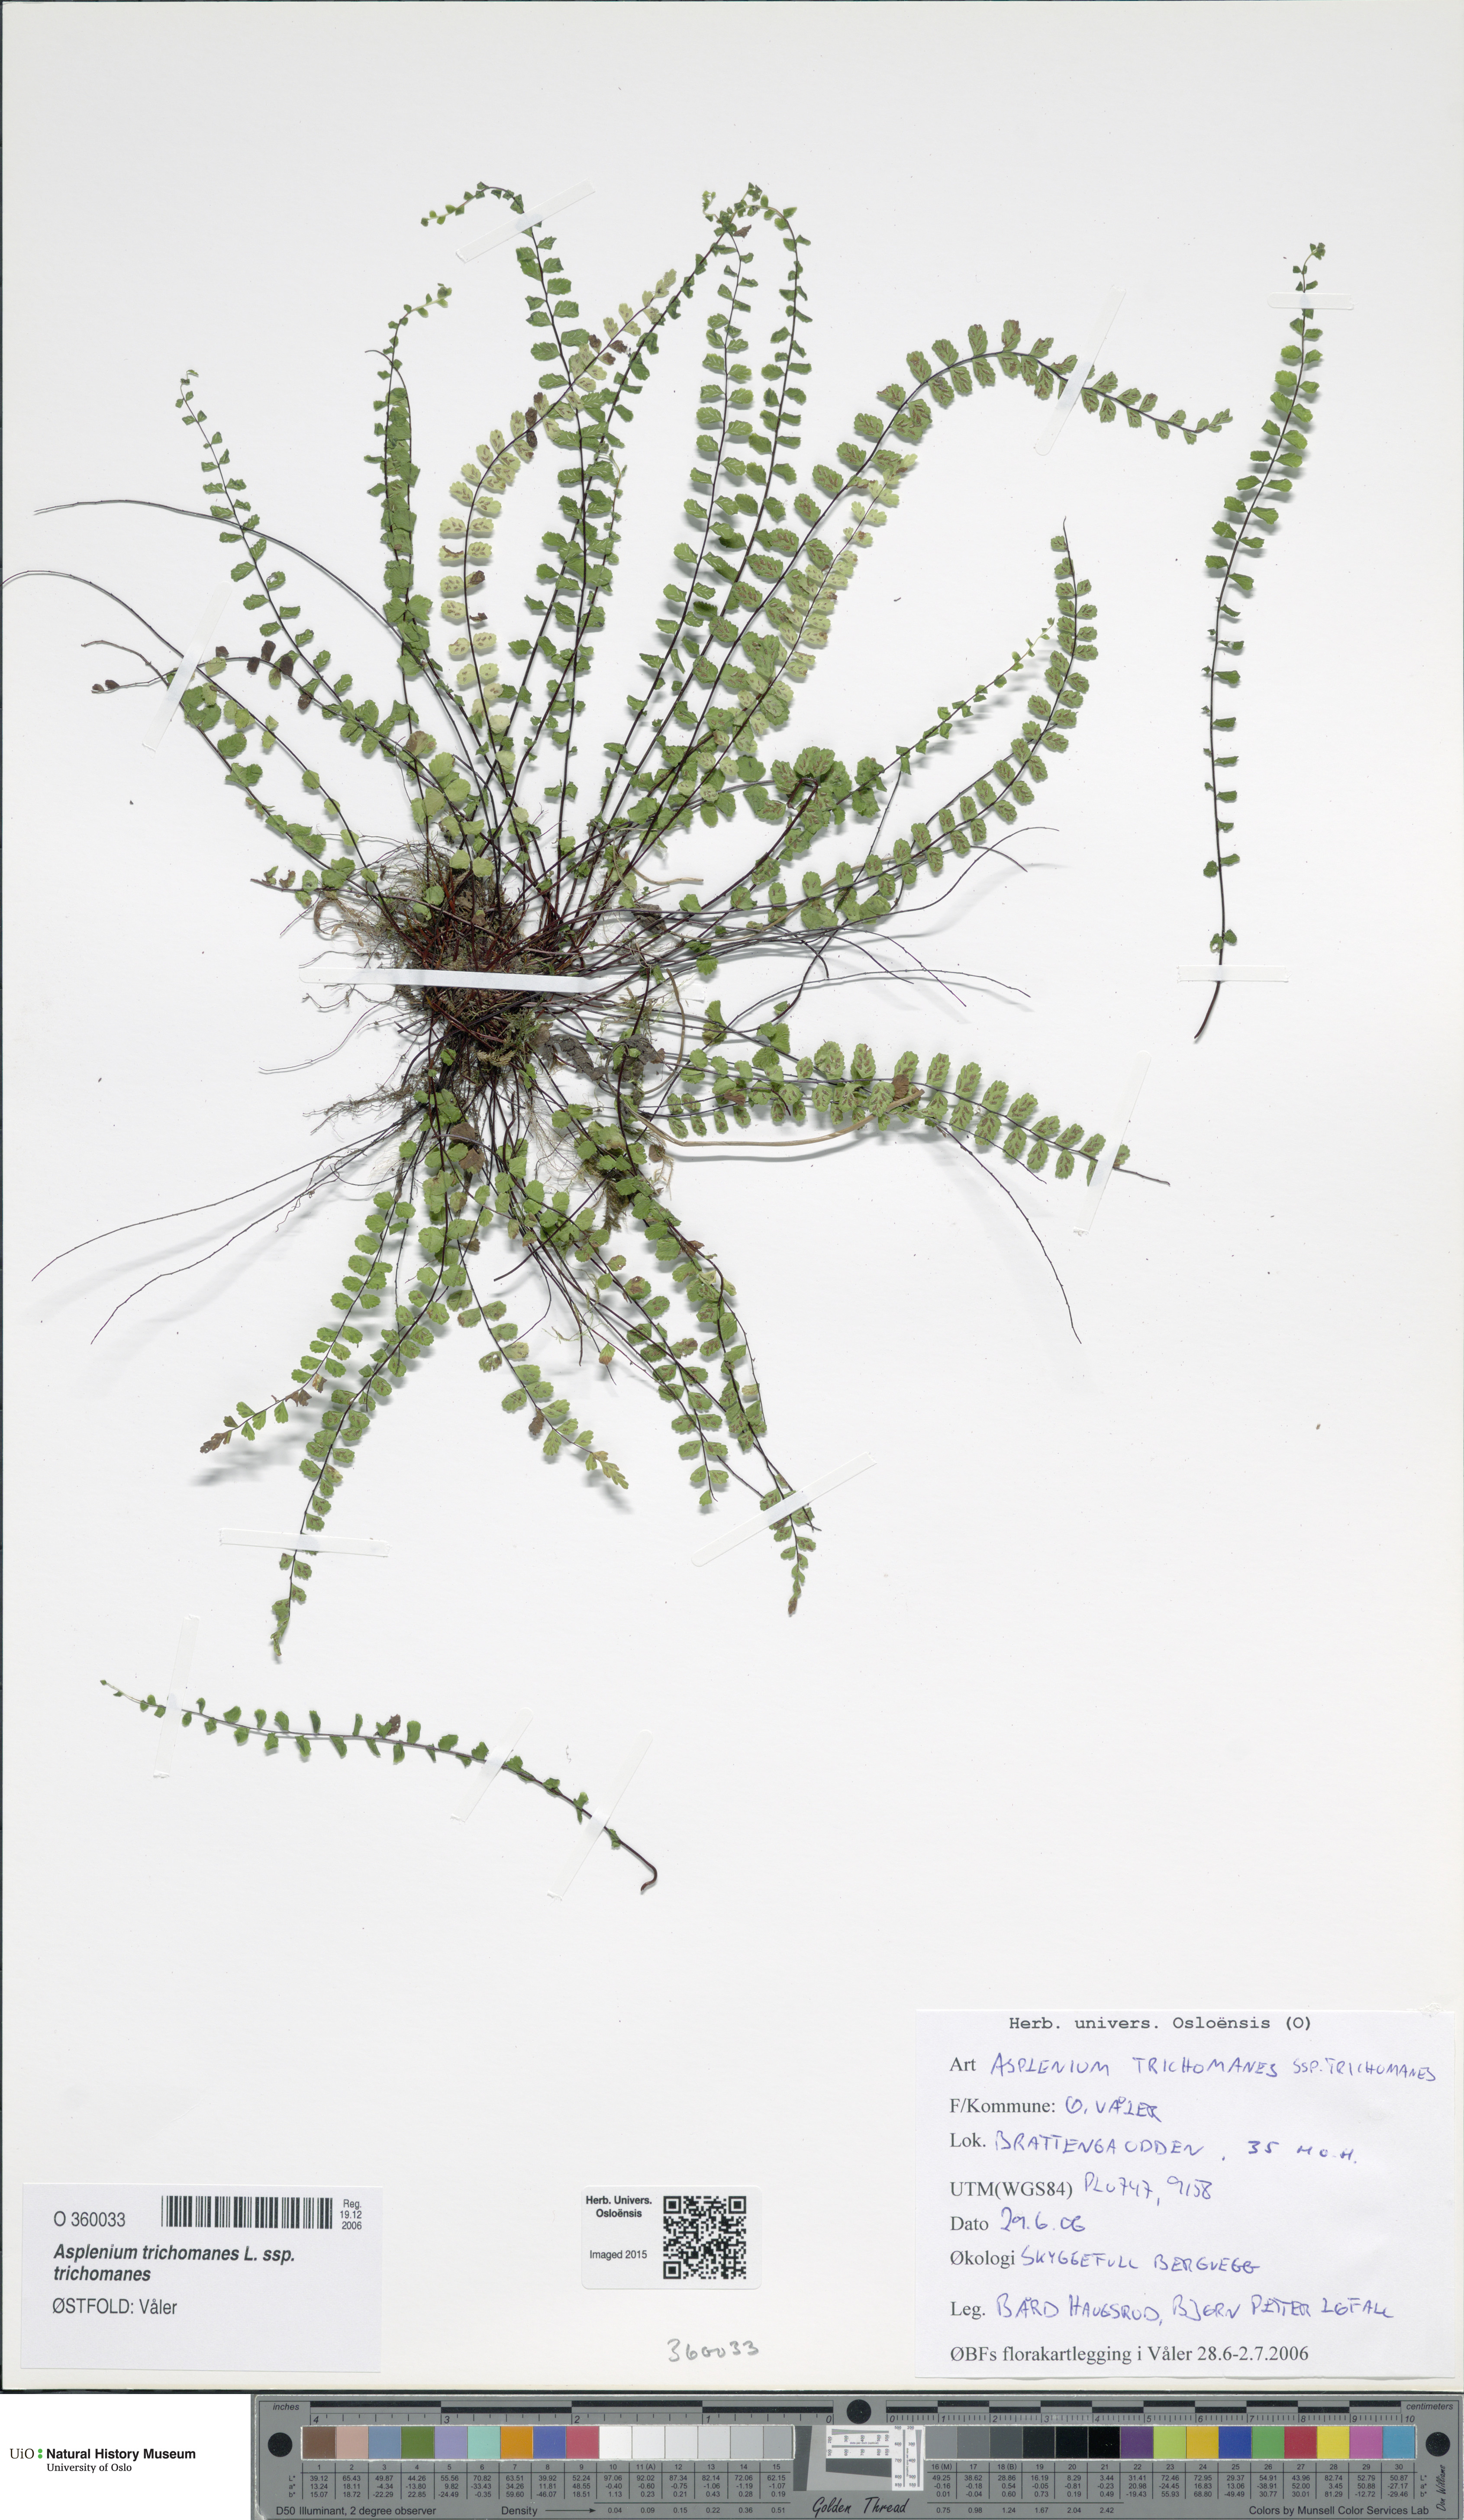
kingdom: Plantae
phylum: Tracheophyta
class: Polypodiopsida
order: Polypodiales
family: Aspleniaceae
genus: Asplenium
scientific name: Asplenium trichomanes
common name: Maidenhair spleenwort
